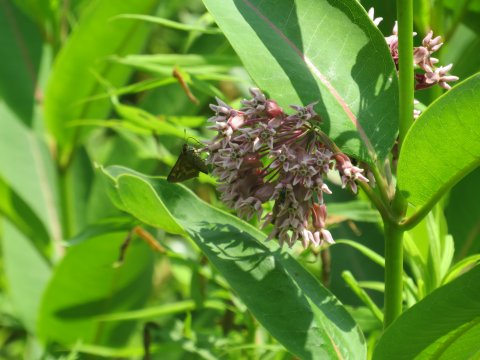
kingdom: Animalia
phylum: Arthropoda
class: Insecta
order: Lepidoptera
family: Hesperiidae
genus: Polites
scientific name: Polites
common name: Long Dash Skipper
